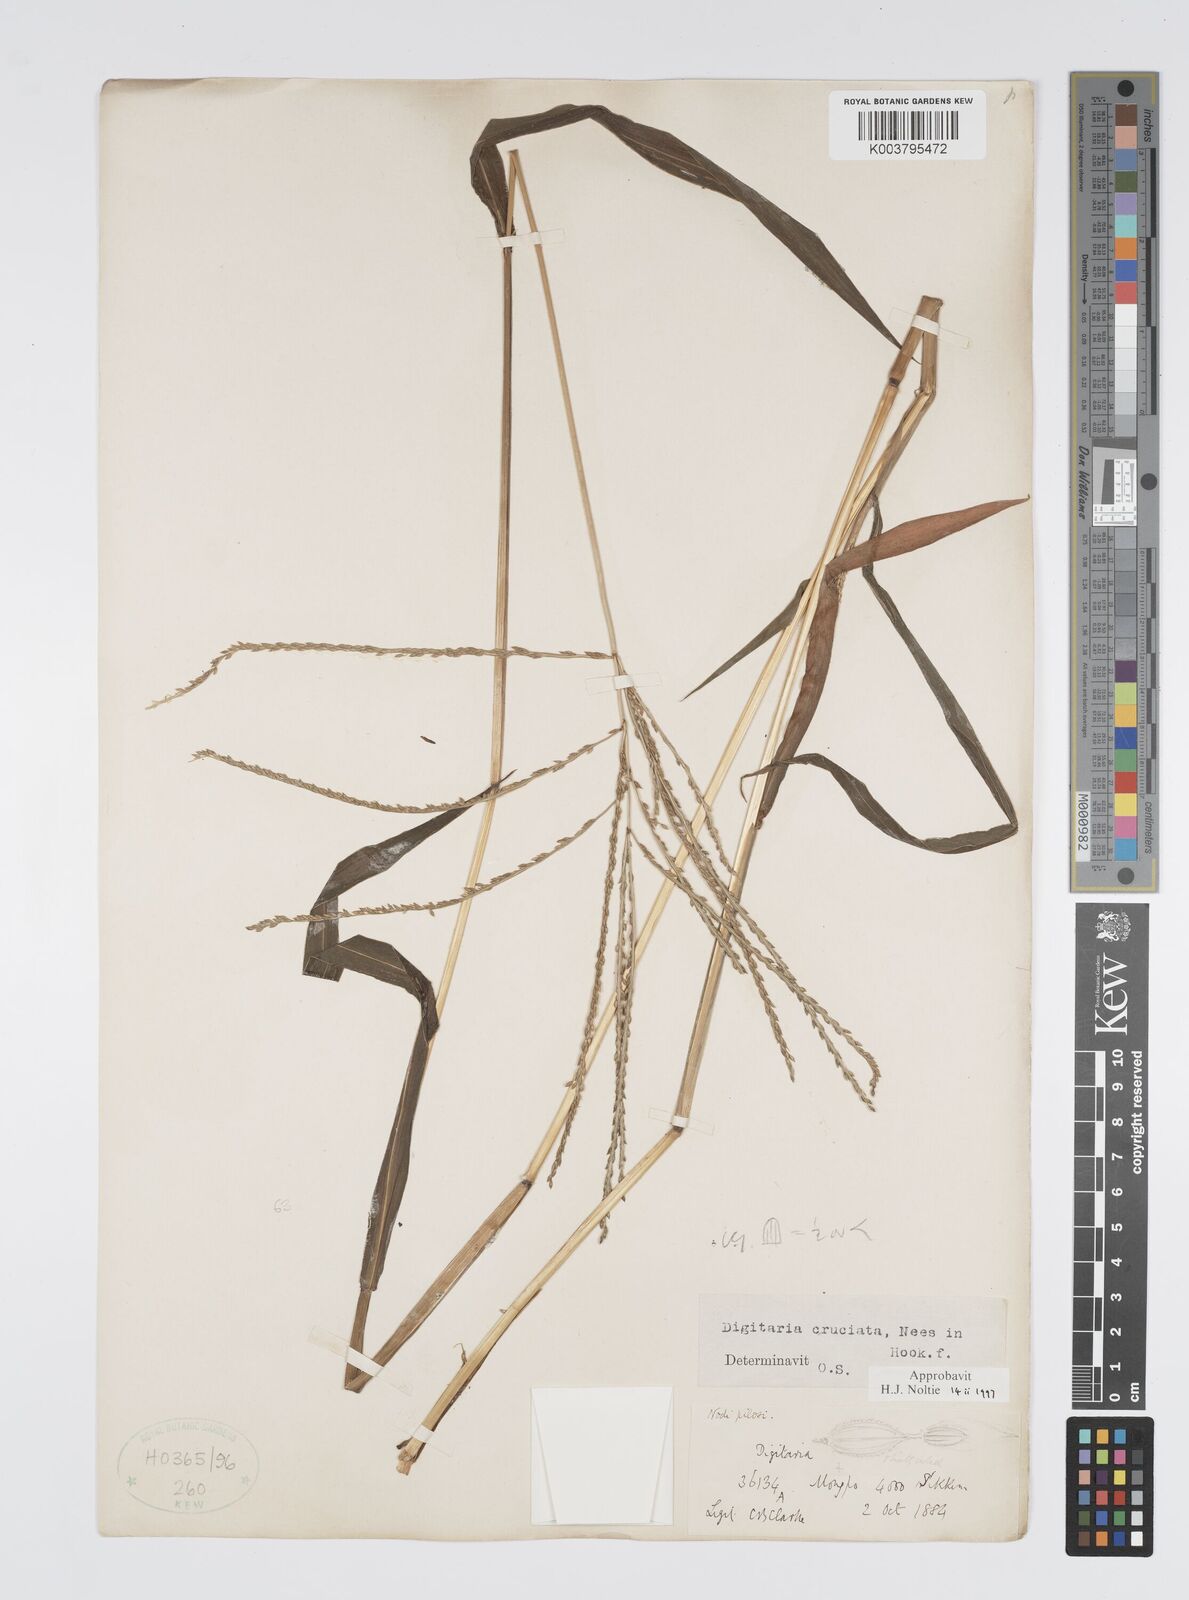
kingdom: Plantae
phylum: Tracheophyta
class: Liliopsida
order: Poales
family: Poaceae
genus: Digitaria
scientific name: Digitaria cruciata
